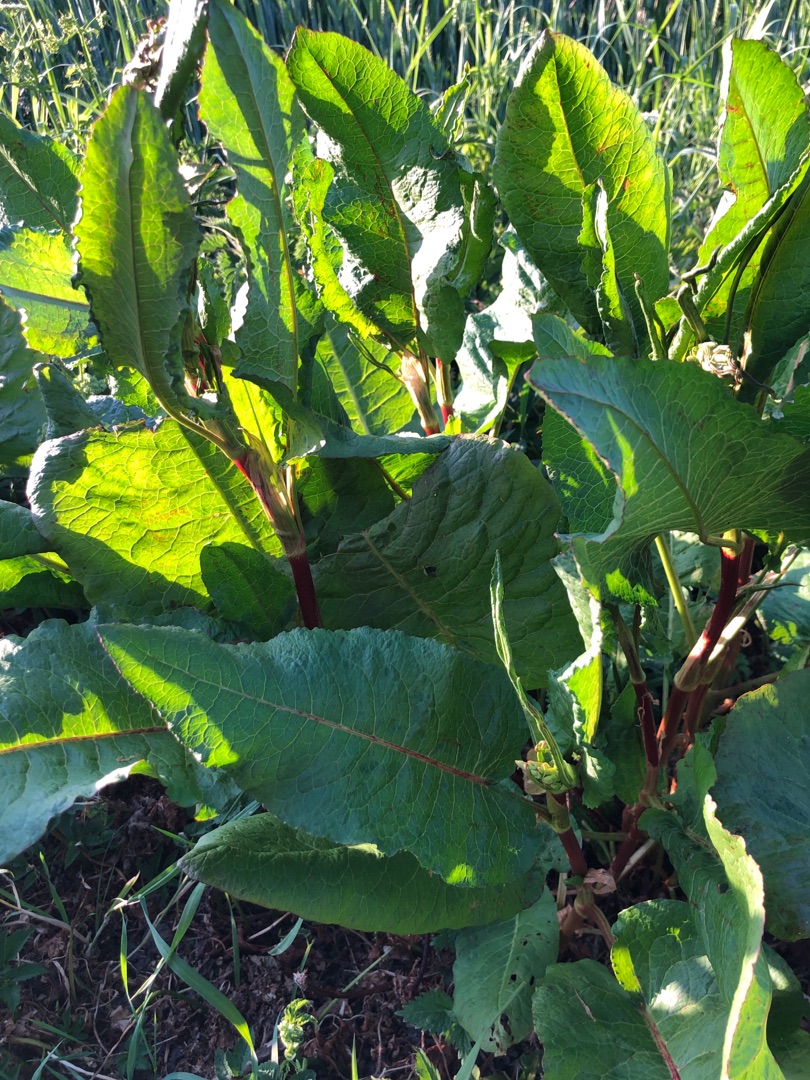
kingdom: Plantae
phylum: Tracheophyta
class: Magnoliopsida
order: Caryophyllales
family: Polygonaceae
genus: Rumex
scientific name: Rumex obtusifolius
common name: Butbladet skræppe
